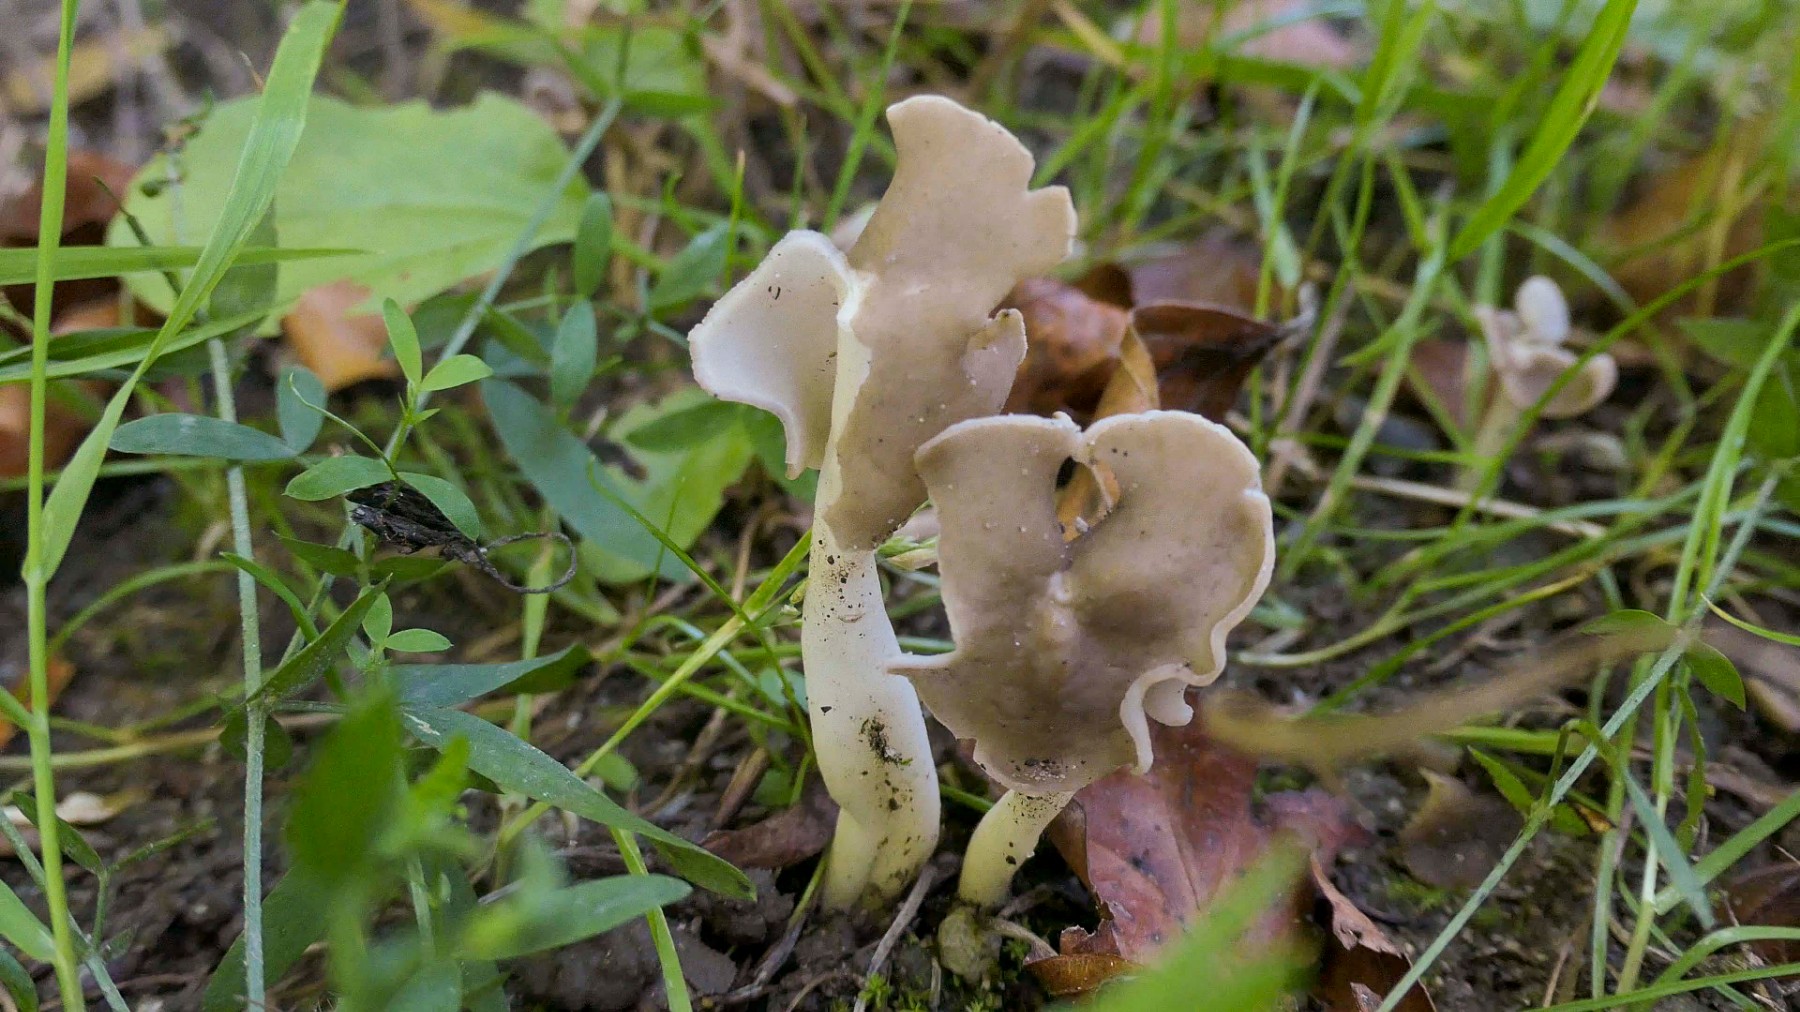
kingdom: Fungi
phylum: Ascomycota
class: Pezizomycetes
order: Pezizales
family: Helvellaceae
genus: Helvella
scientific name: Helvella elastica
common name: elastik-foldhat
